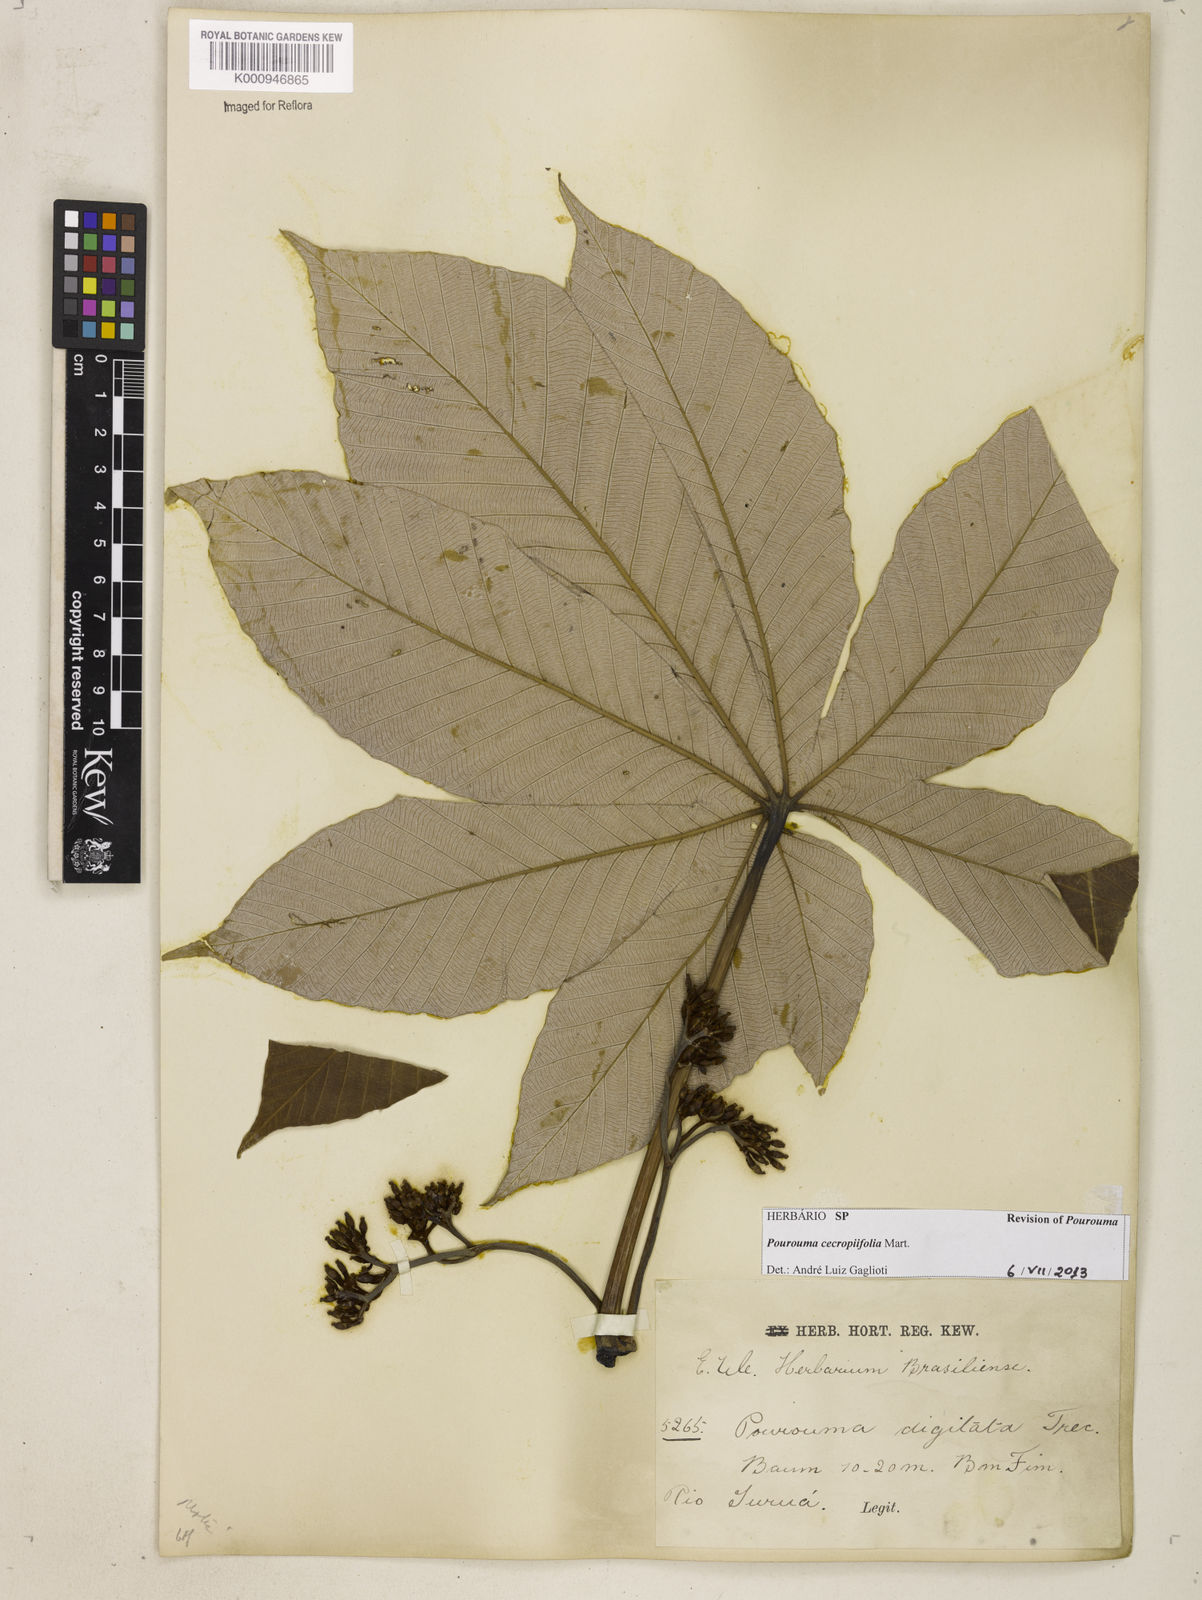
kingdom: Plantae
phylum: Tracheophyta
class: Magnoliopsida
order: Rosales
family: Urticaceae
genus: Pourouma
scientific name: Pourouma cecropiifolia
